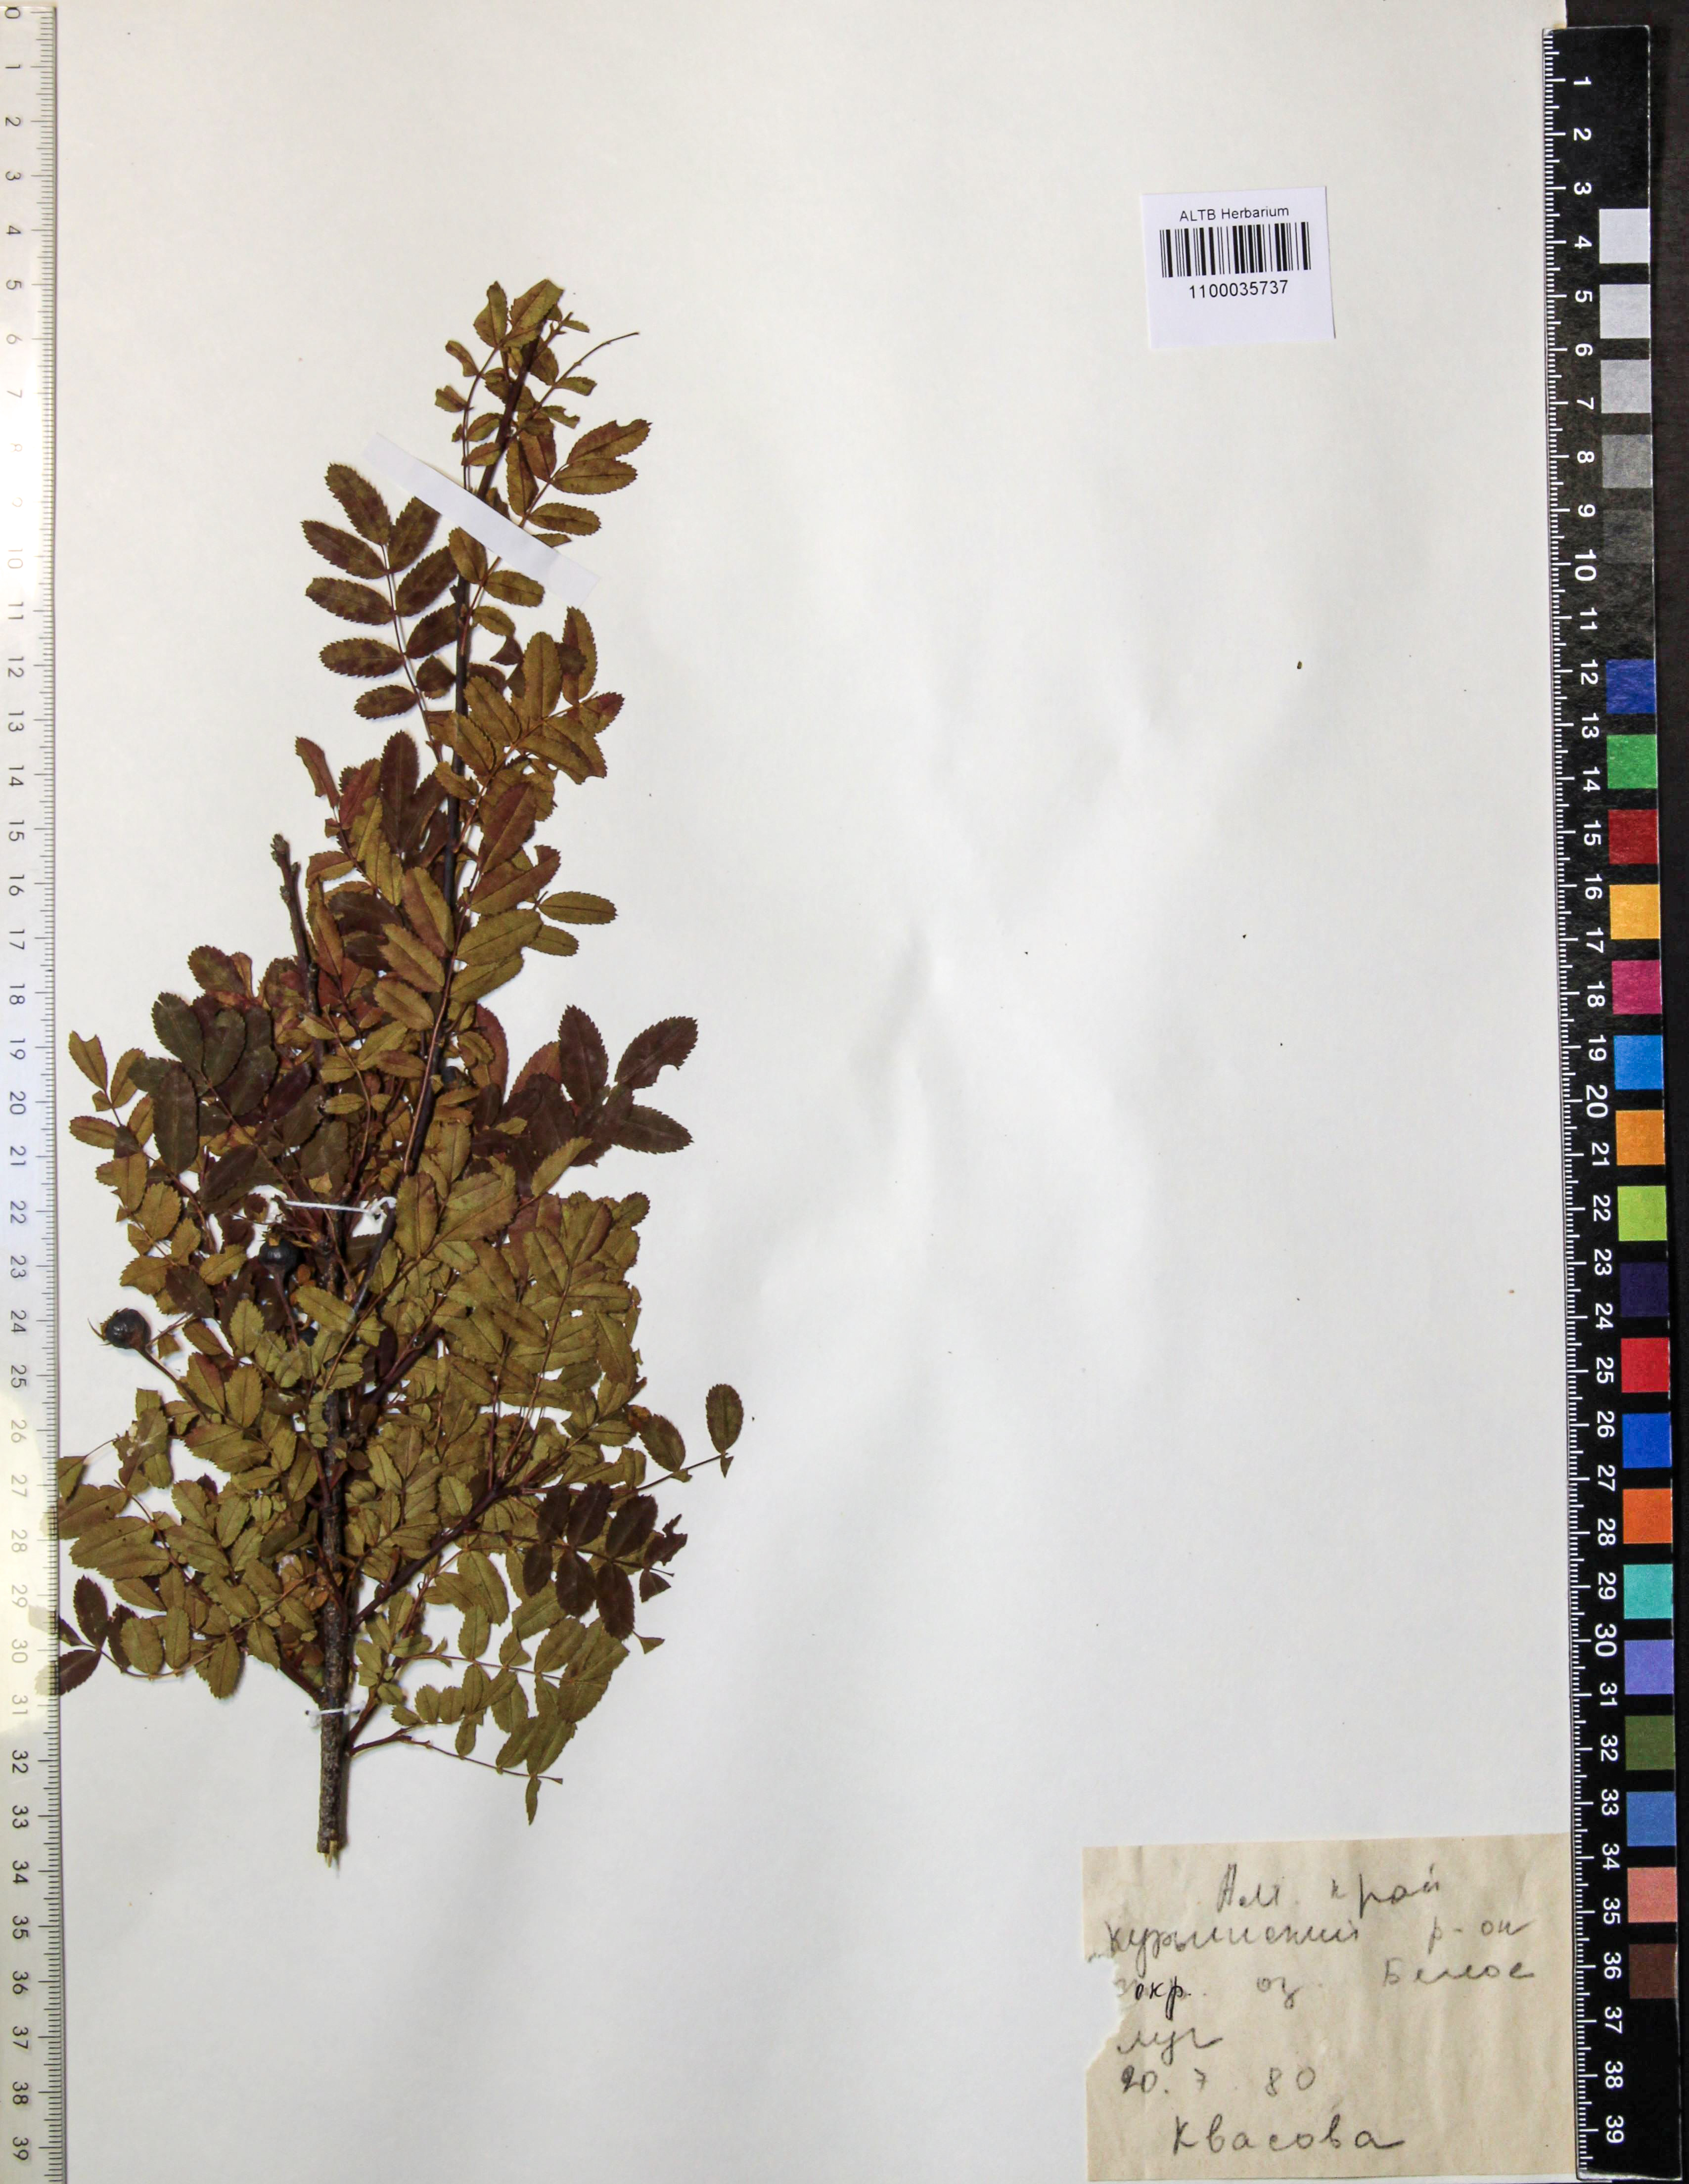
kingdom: Plantae
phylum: Tracheophyta
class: Magnoliopsida
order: Rosales
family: Rosaceae
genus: Rosa
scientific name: Rosa spinosissima
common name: Burnet rose
